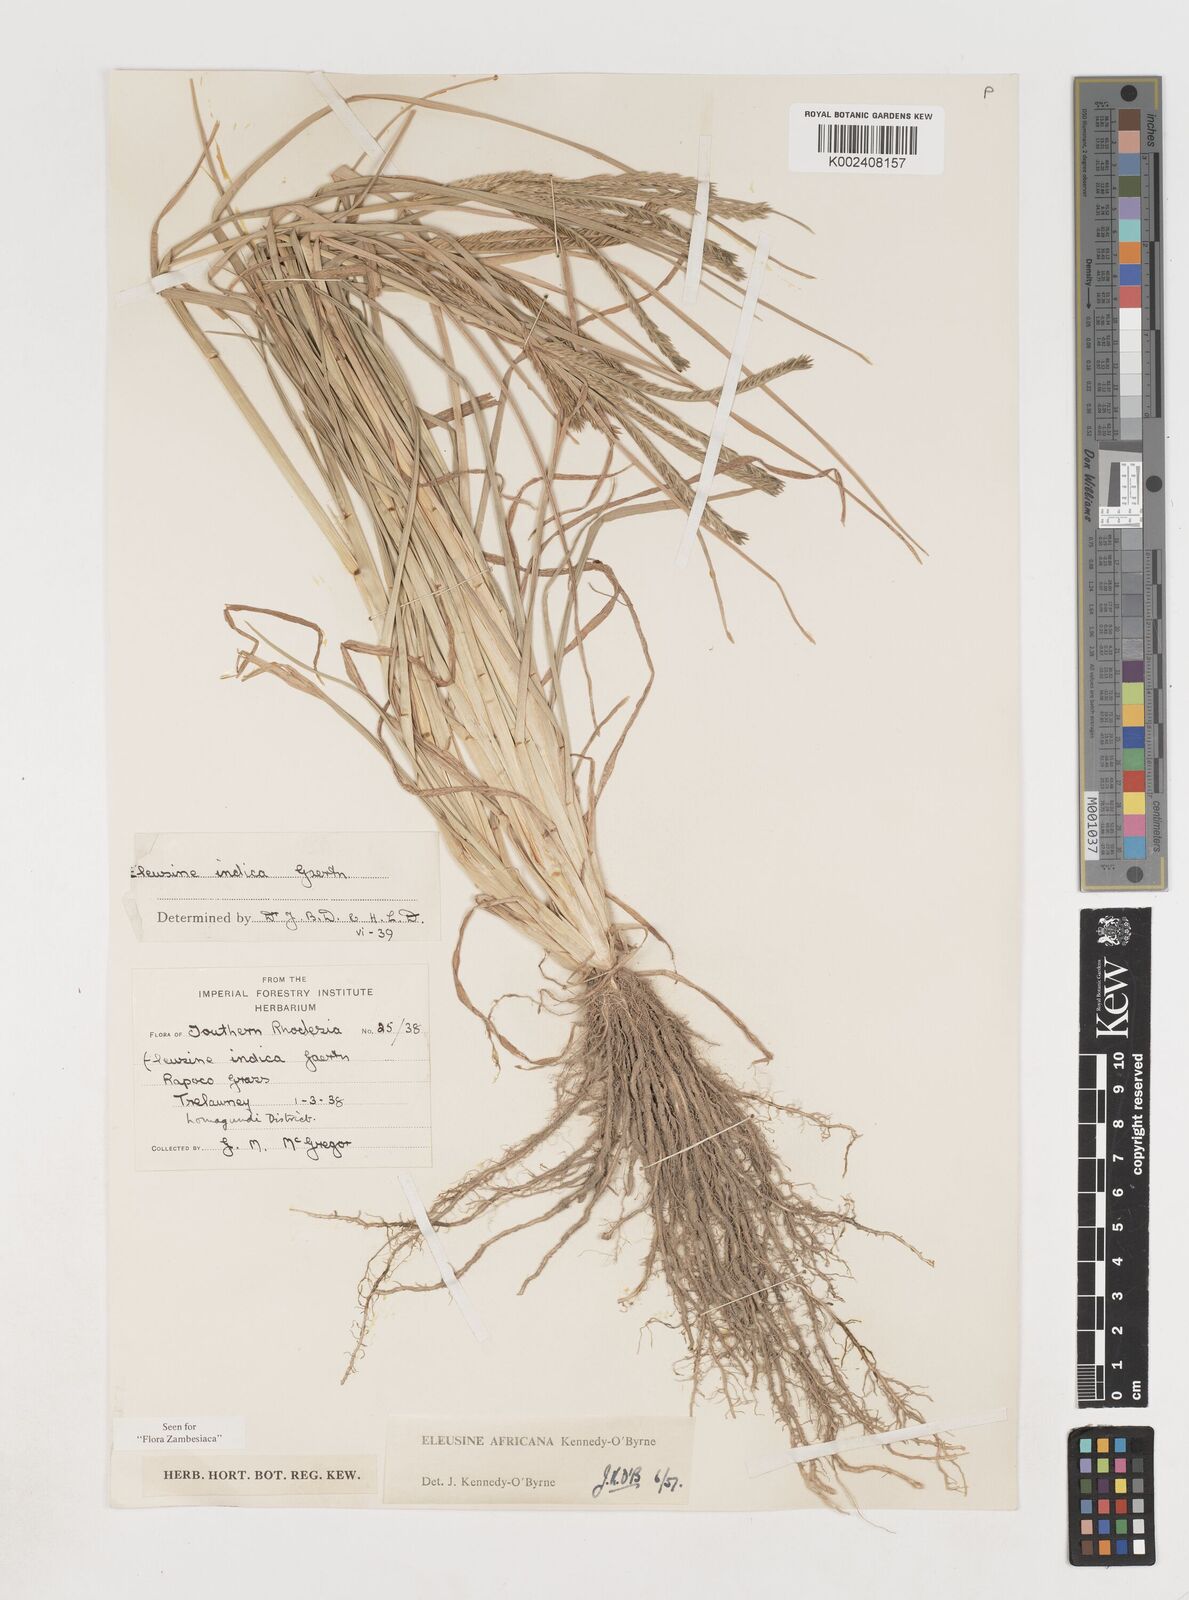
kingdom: Plantae
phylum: Tracheophyta
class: Liliopsida
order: Poales
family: Poaceae
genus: Eleusine
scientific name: Eleusine africana
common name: Wild african finger millet
